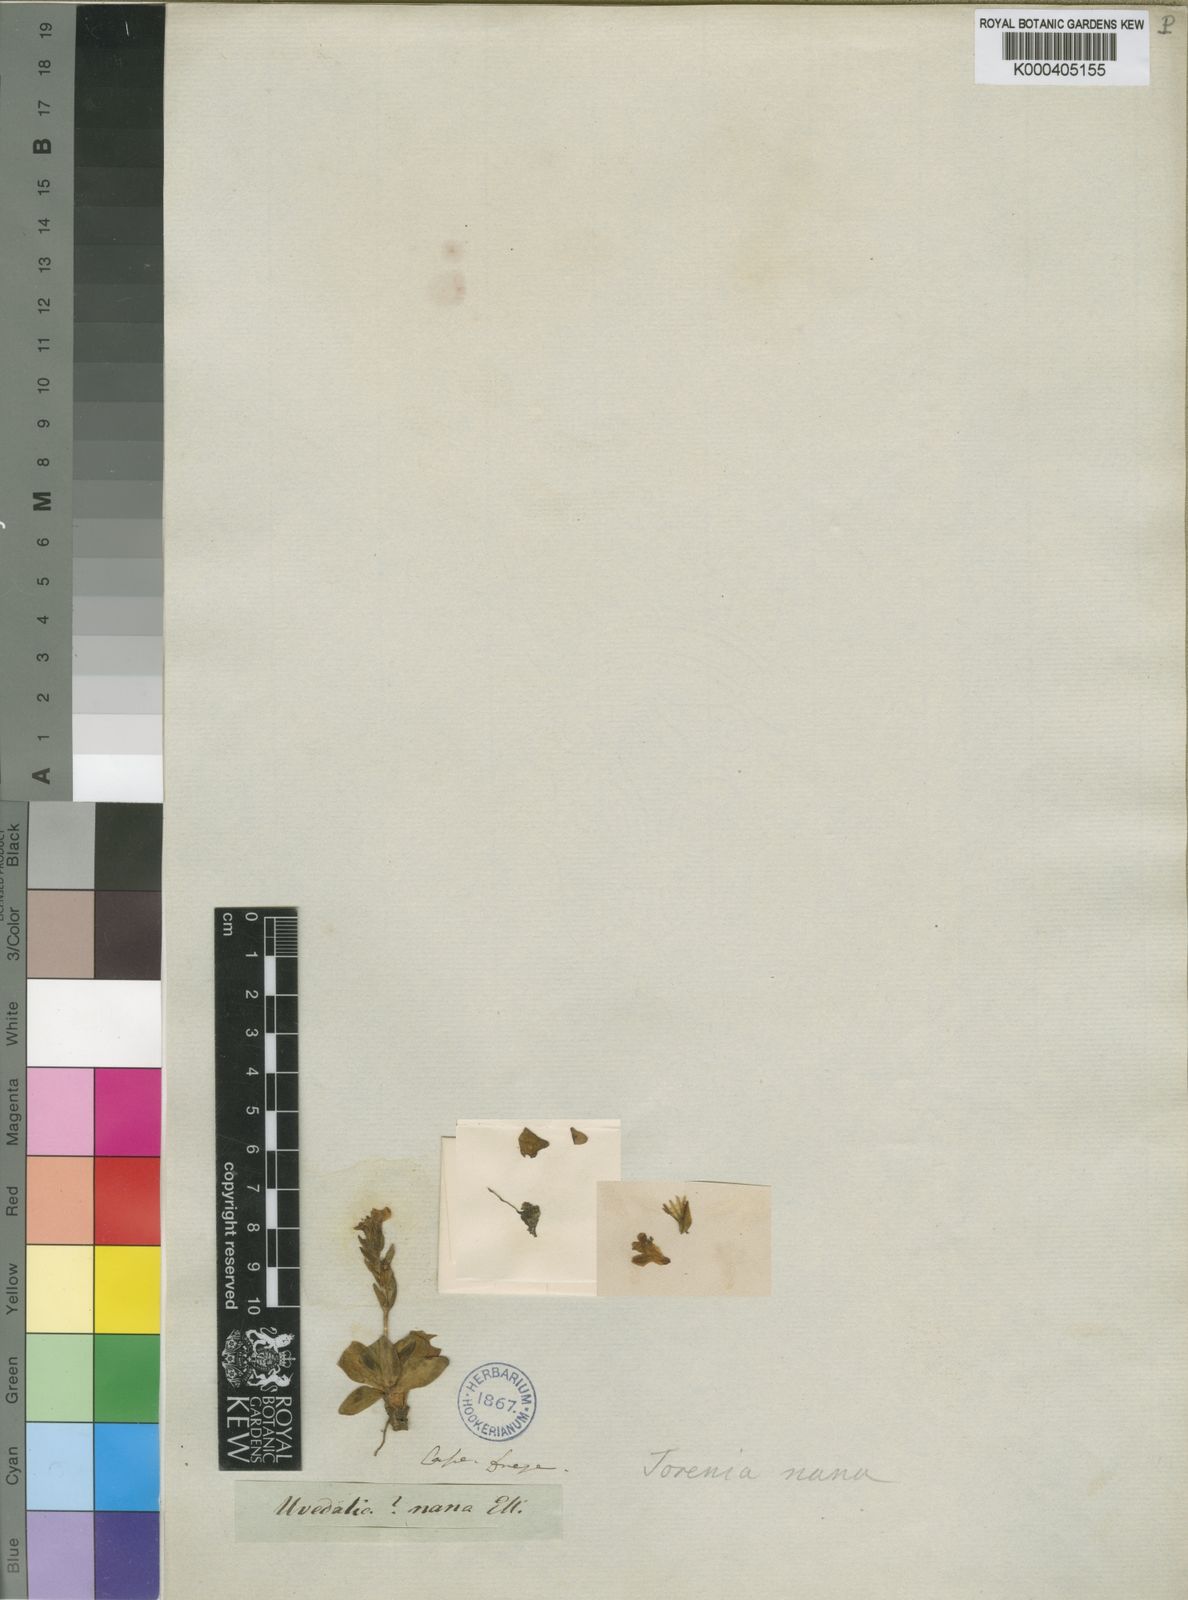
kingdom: Plantae
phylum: Tracheophyta
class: Magnoliopsida
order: Lamiales
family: Linderniaceae
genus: Craterostigma
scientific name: Craterostigma plantagineum
